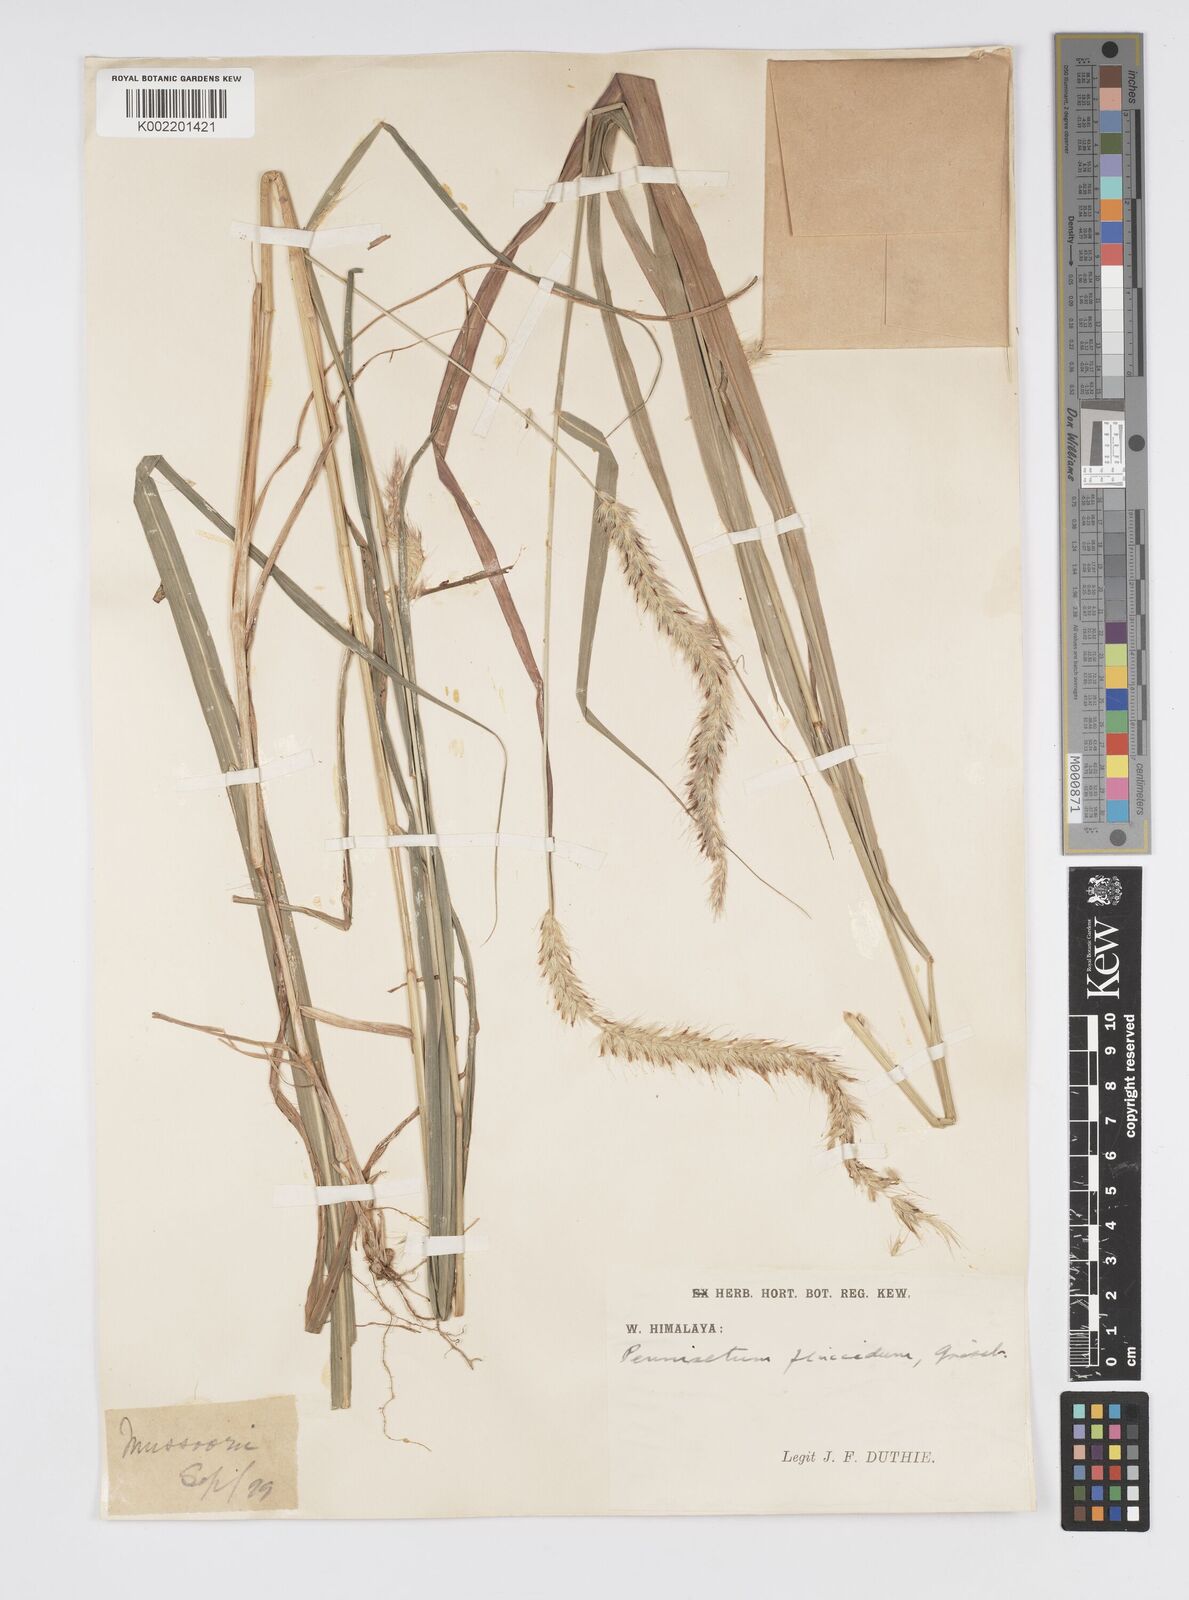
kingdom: Plantae
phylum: Tracheophyta
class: Liliopsida
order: Poales
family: Poaceae
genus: Cenchrus
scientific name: Cenchrus flaccidus
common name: Flaccid grass
